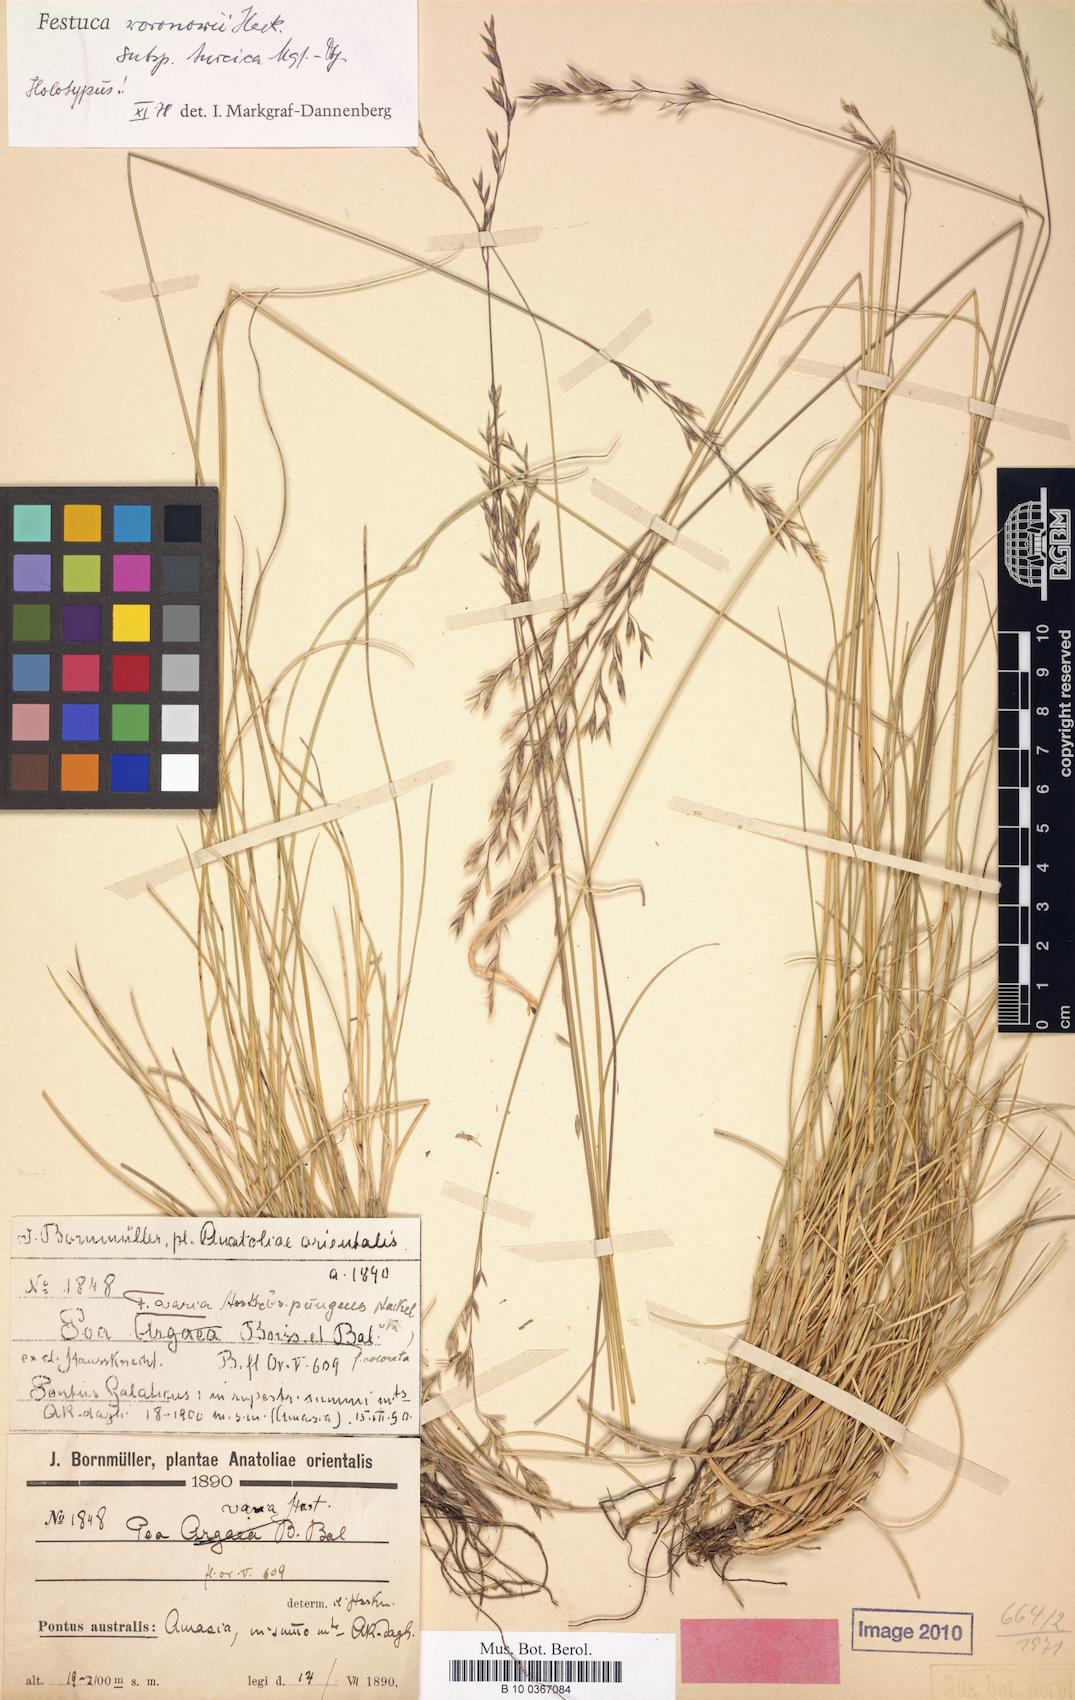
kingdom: Plantae
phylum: Tracheophyta
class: Liliopsida
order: Poales
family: Poaceae
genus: Festuca
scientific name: Festuca varia
